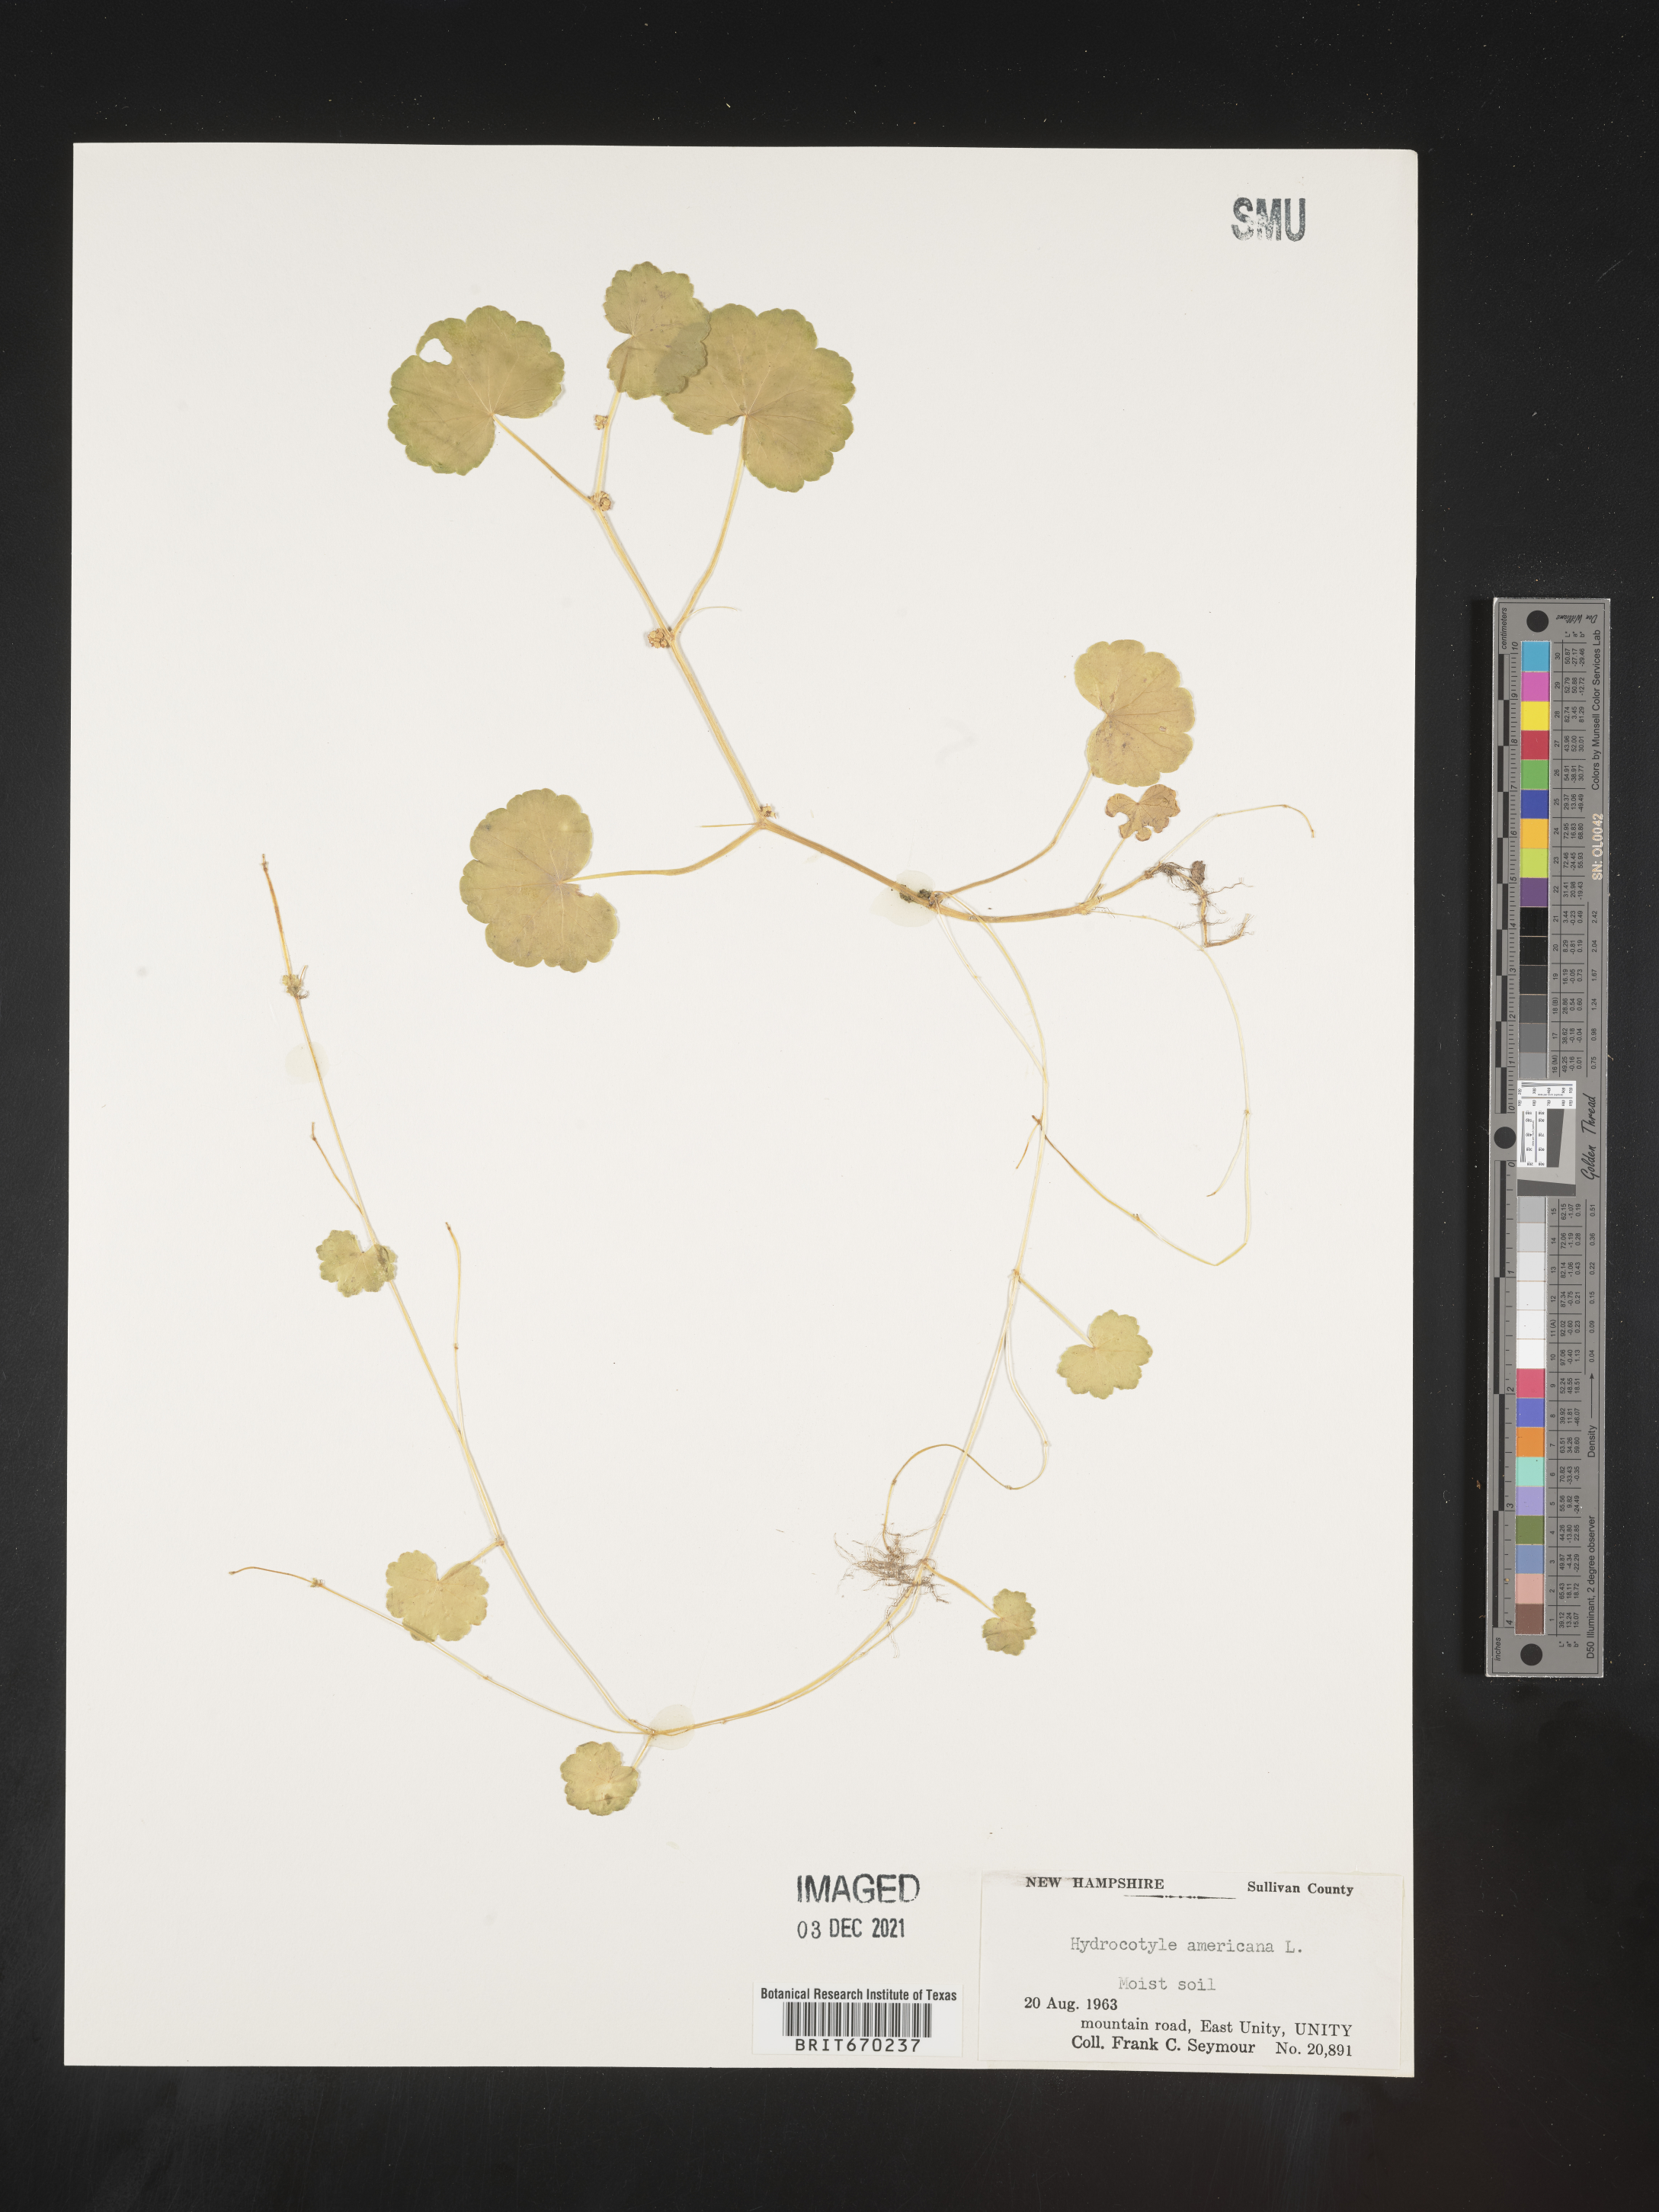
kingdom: Plantae
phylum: Tracheophyta
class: Magnoliopsida
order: Apiales
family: Araliaceae
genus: Hydrocotyle
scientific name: Hydrocotyle
